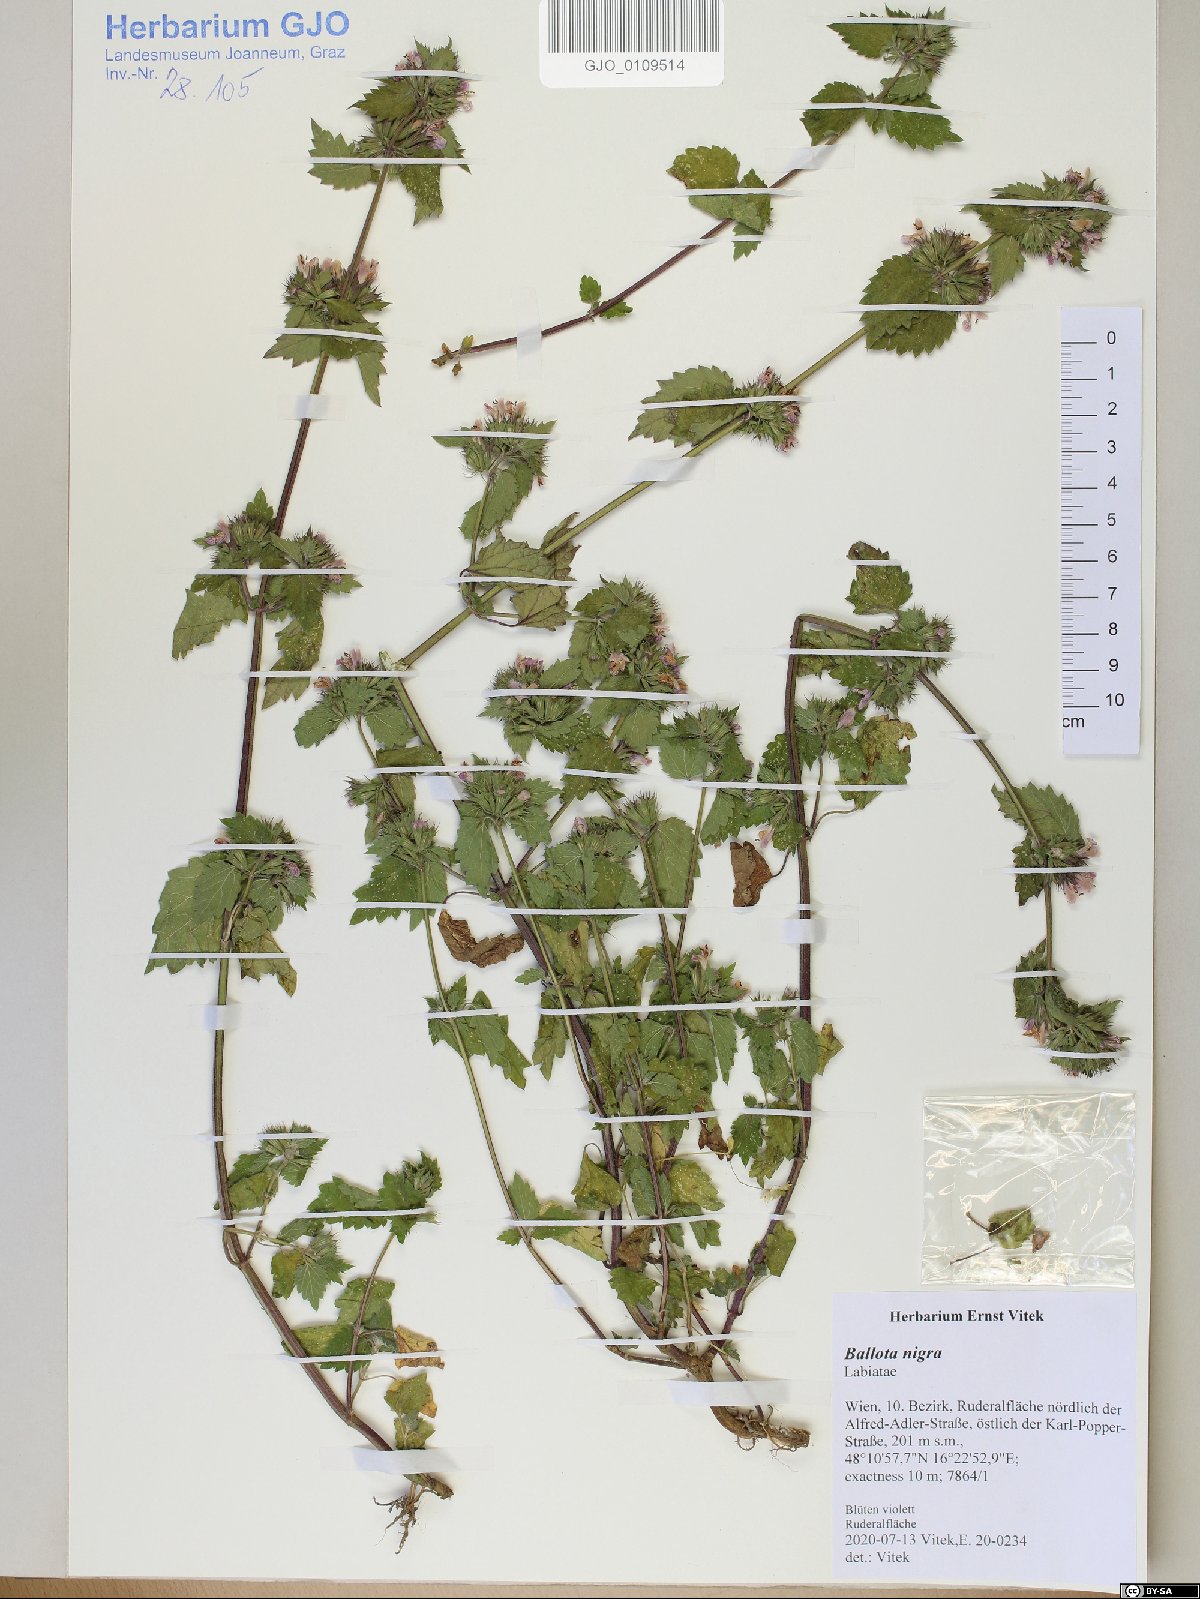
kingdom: Plantae
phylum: Tracheophyta
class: Magnoliopsida
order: Lamiales
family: Lamiaceae
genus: Ballota
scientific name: Ballota nigra
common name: Black horehound
